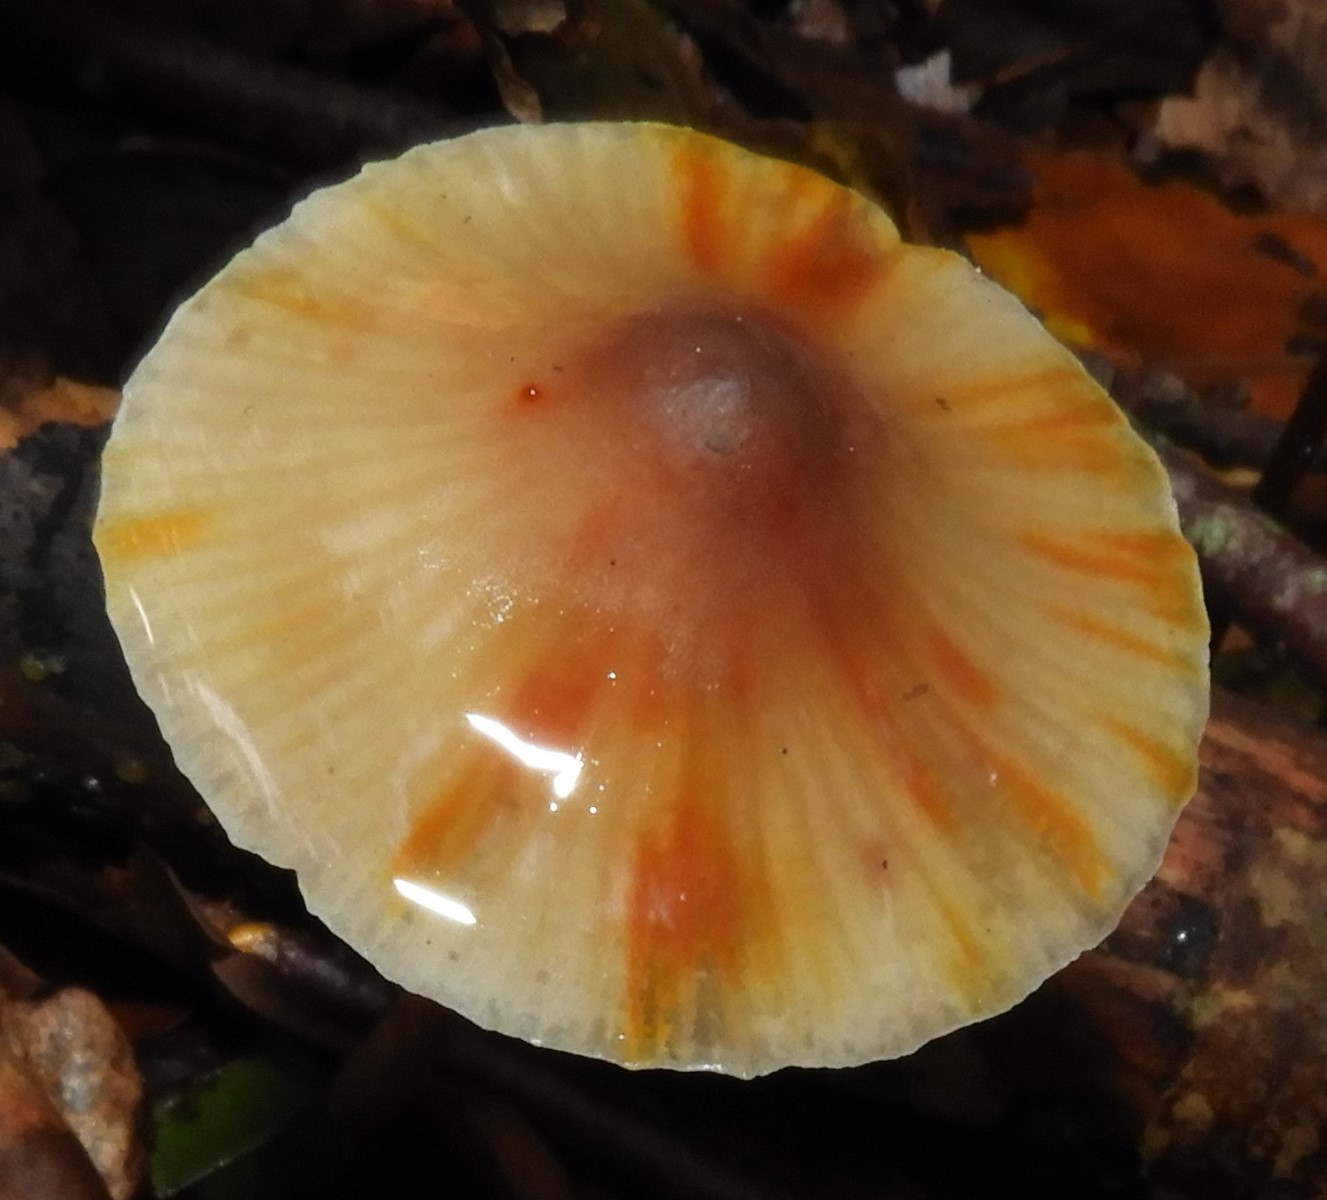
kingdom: Fungi
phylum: Basidiomycota
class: Agaricomycetes
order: Agaricales
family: Mycenaceae
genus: Mycena
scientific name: Mycena crocata
